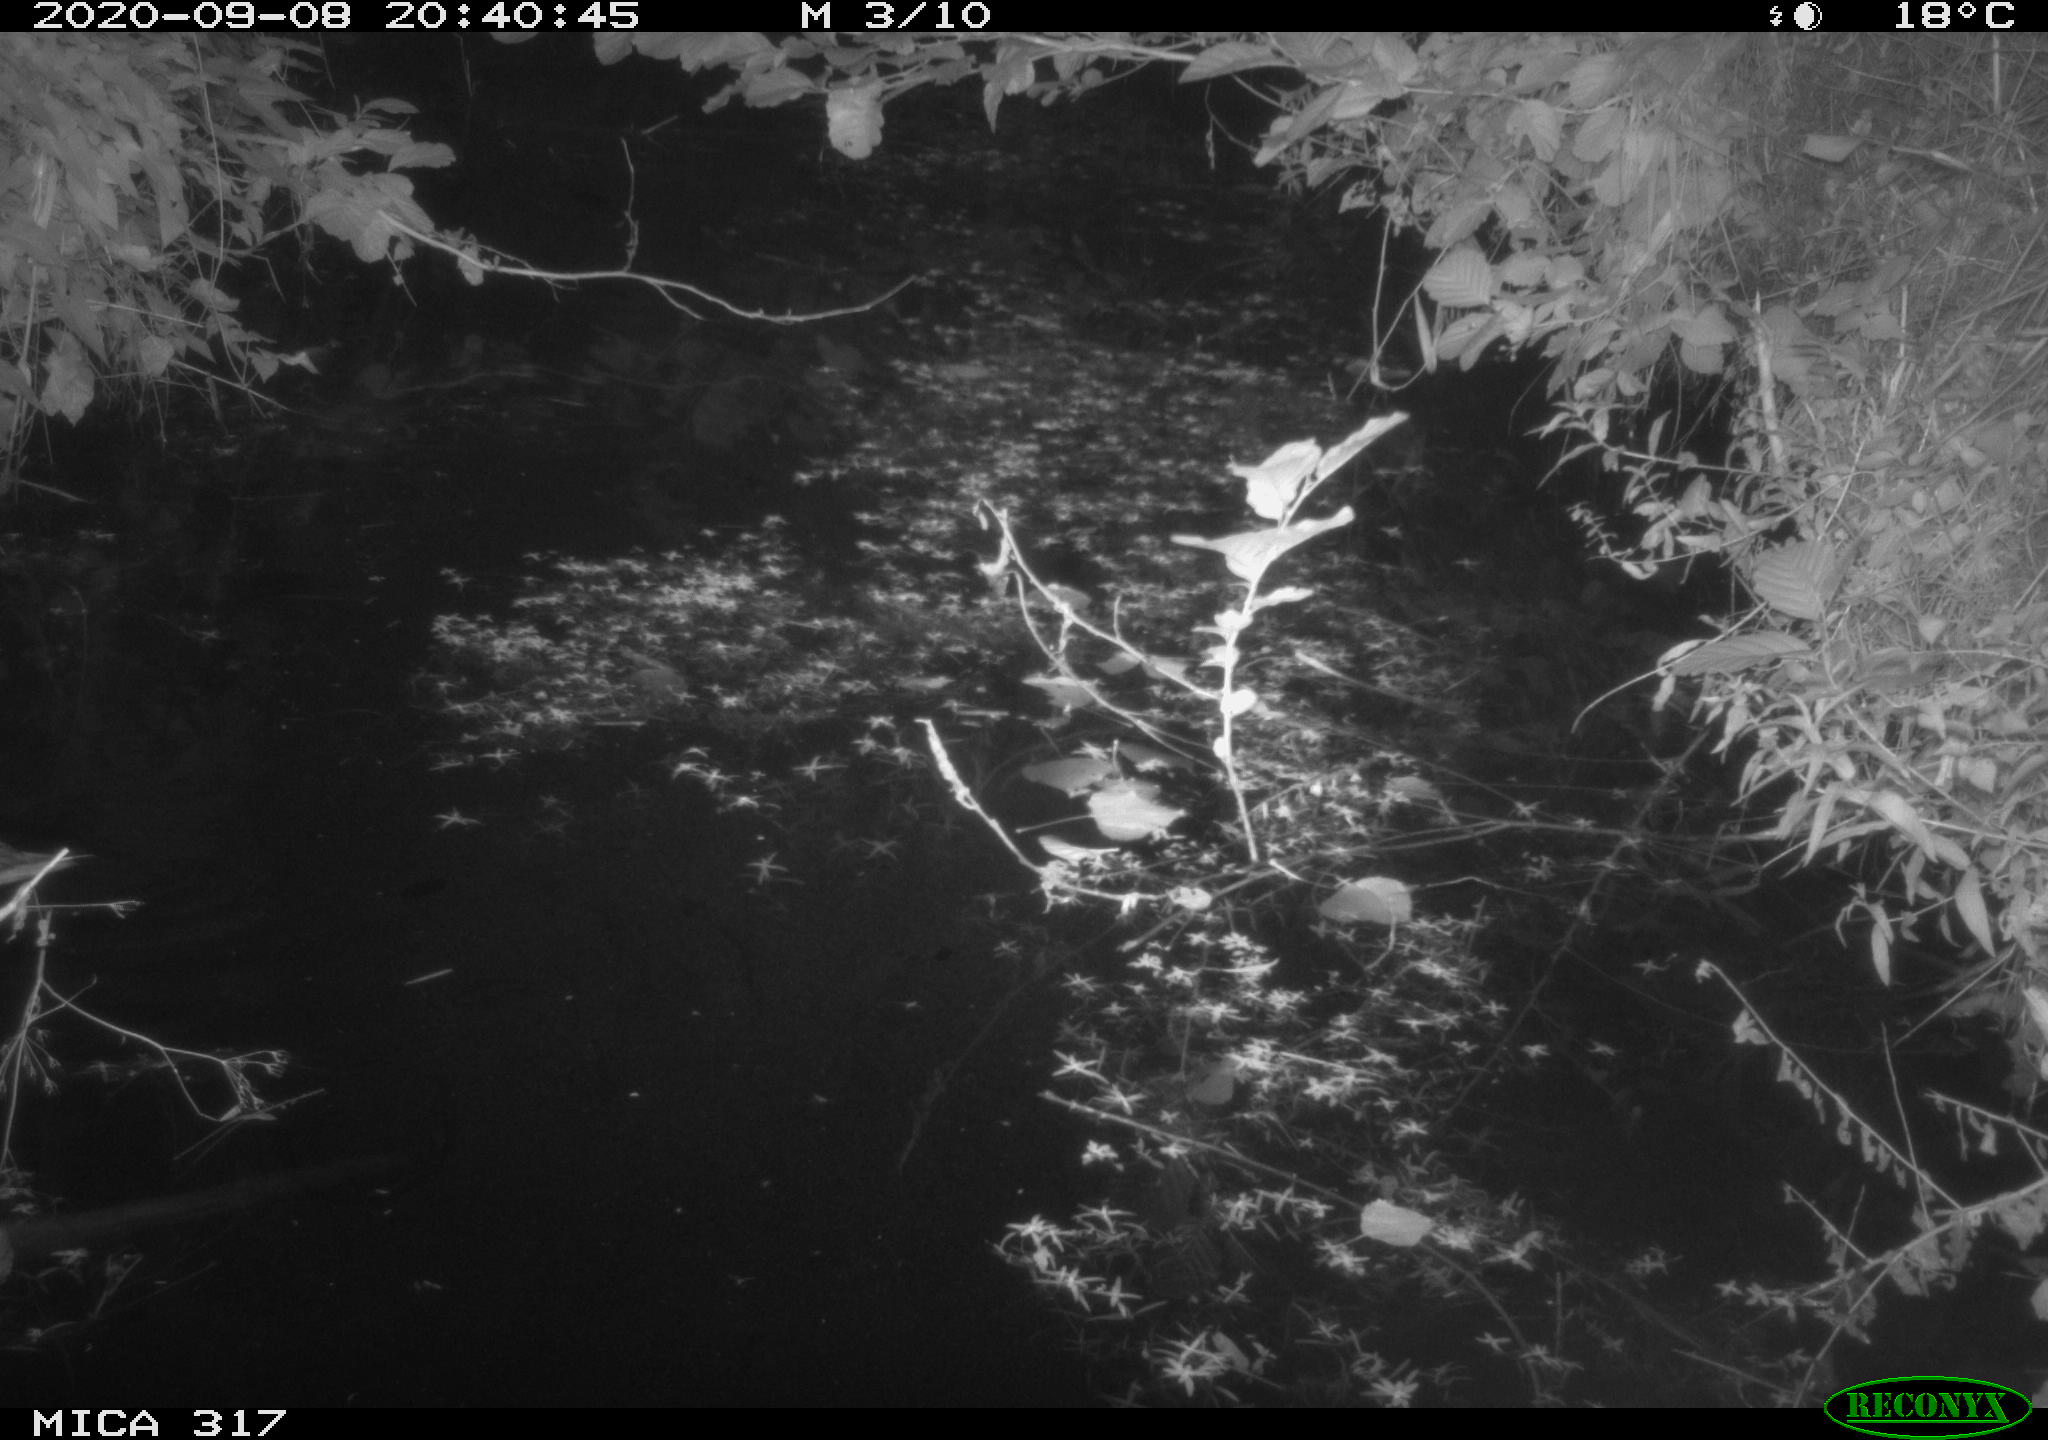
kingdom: Animalia
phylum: Chordata
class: Aves
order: Anseriformes
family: Anatidae
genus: Anas
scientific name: Anas platyrhynchos
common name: Mallard
